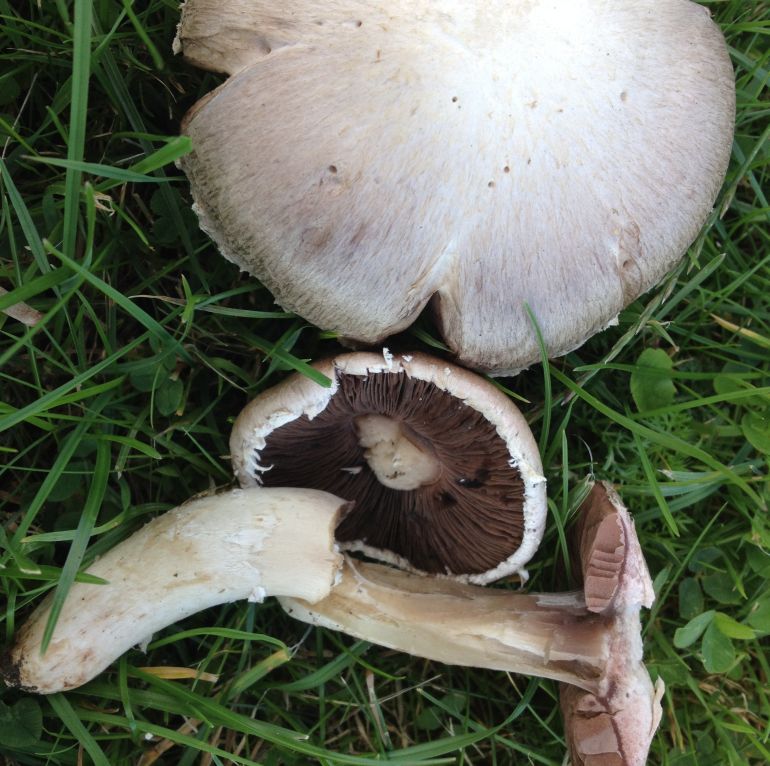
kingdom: Fungi
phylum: Basidiomycota
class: Agaricomycetes
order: Agaricales
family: Agaricaceae
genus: Agaricus
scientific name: Agaricus campestris
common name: mark-champignon
